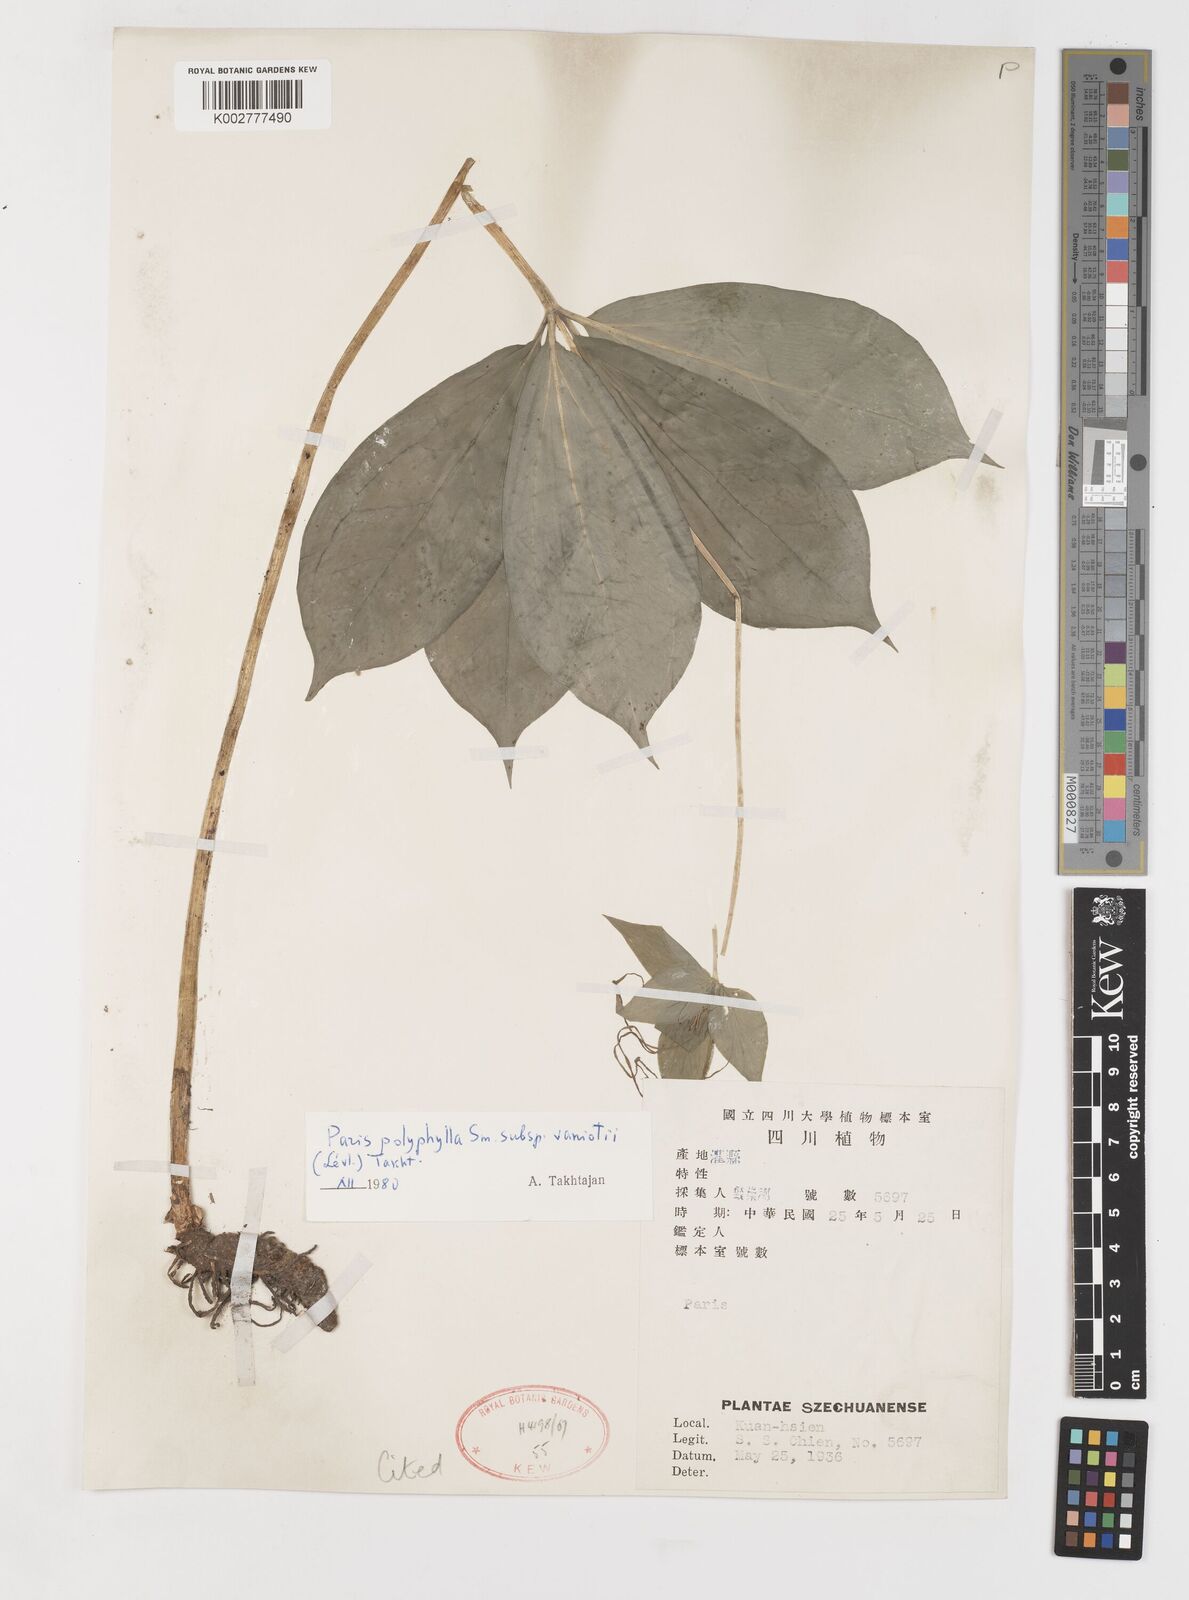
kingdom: Plantae
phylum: Tracheophyta
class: Liliopsida
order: Liliales
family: Melanthiaceae
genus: Paris
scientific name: Paris delavayi
